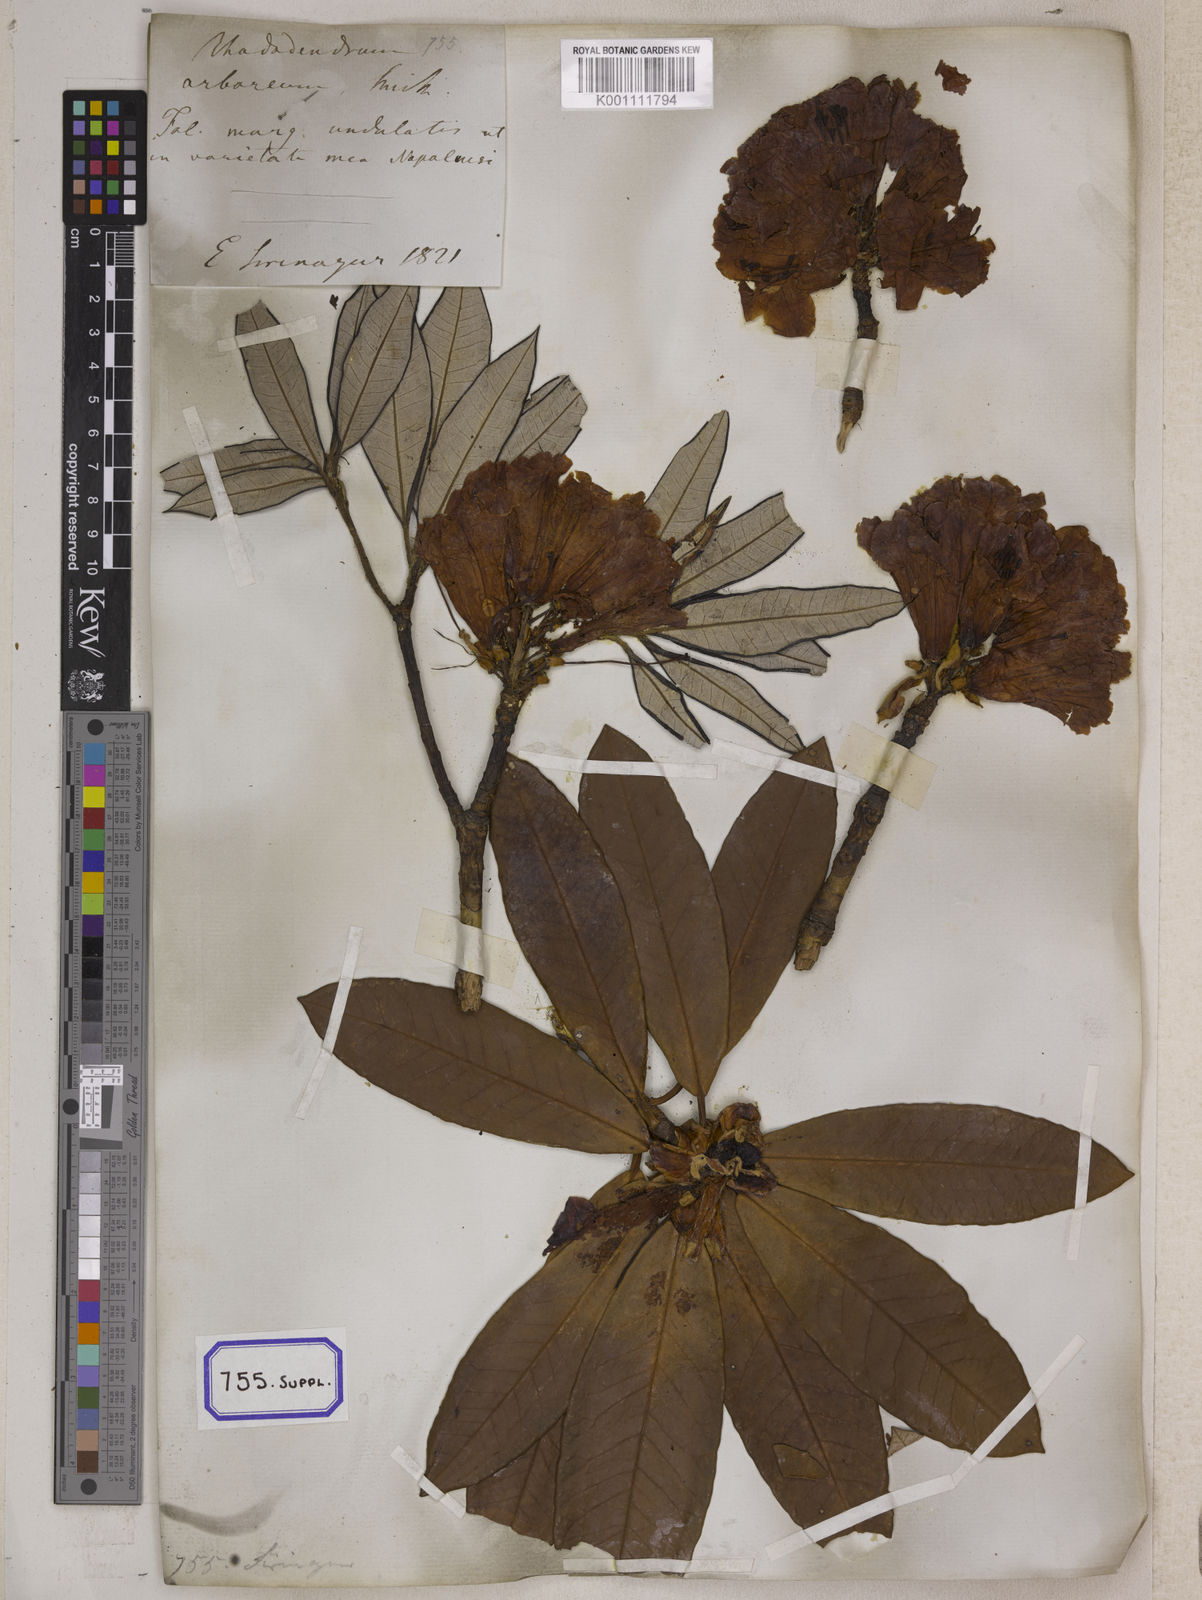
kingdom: Plantae
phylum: Tracheophyta
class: Magnoliopsida
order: Ericales
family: Ericaceae
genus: Rhododendron
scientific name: Rhododendron arboreum
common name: Tree rhododendron
